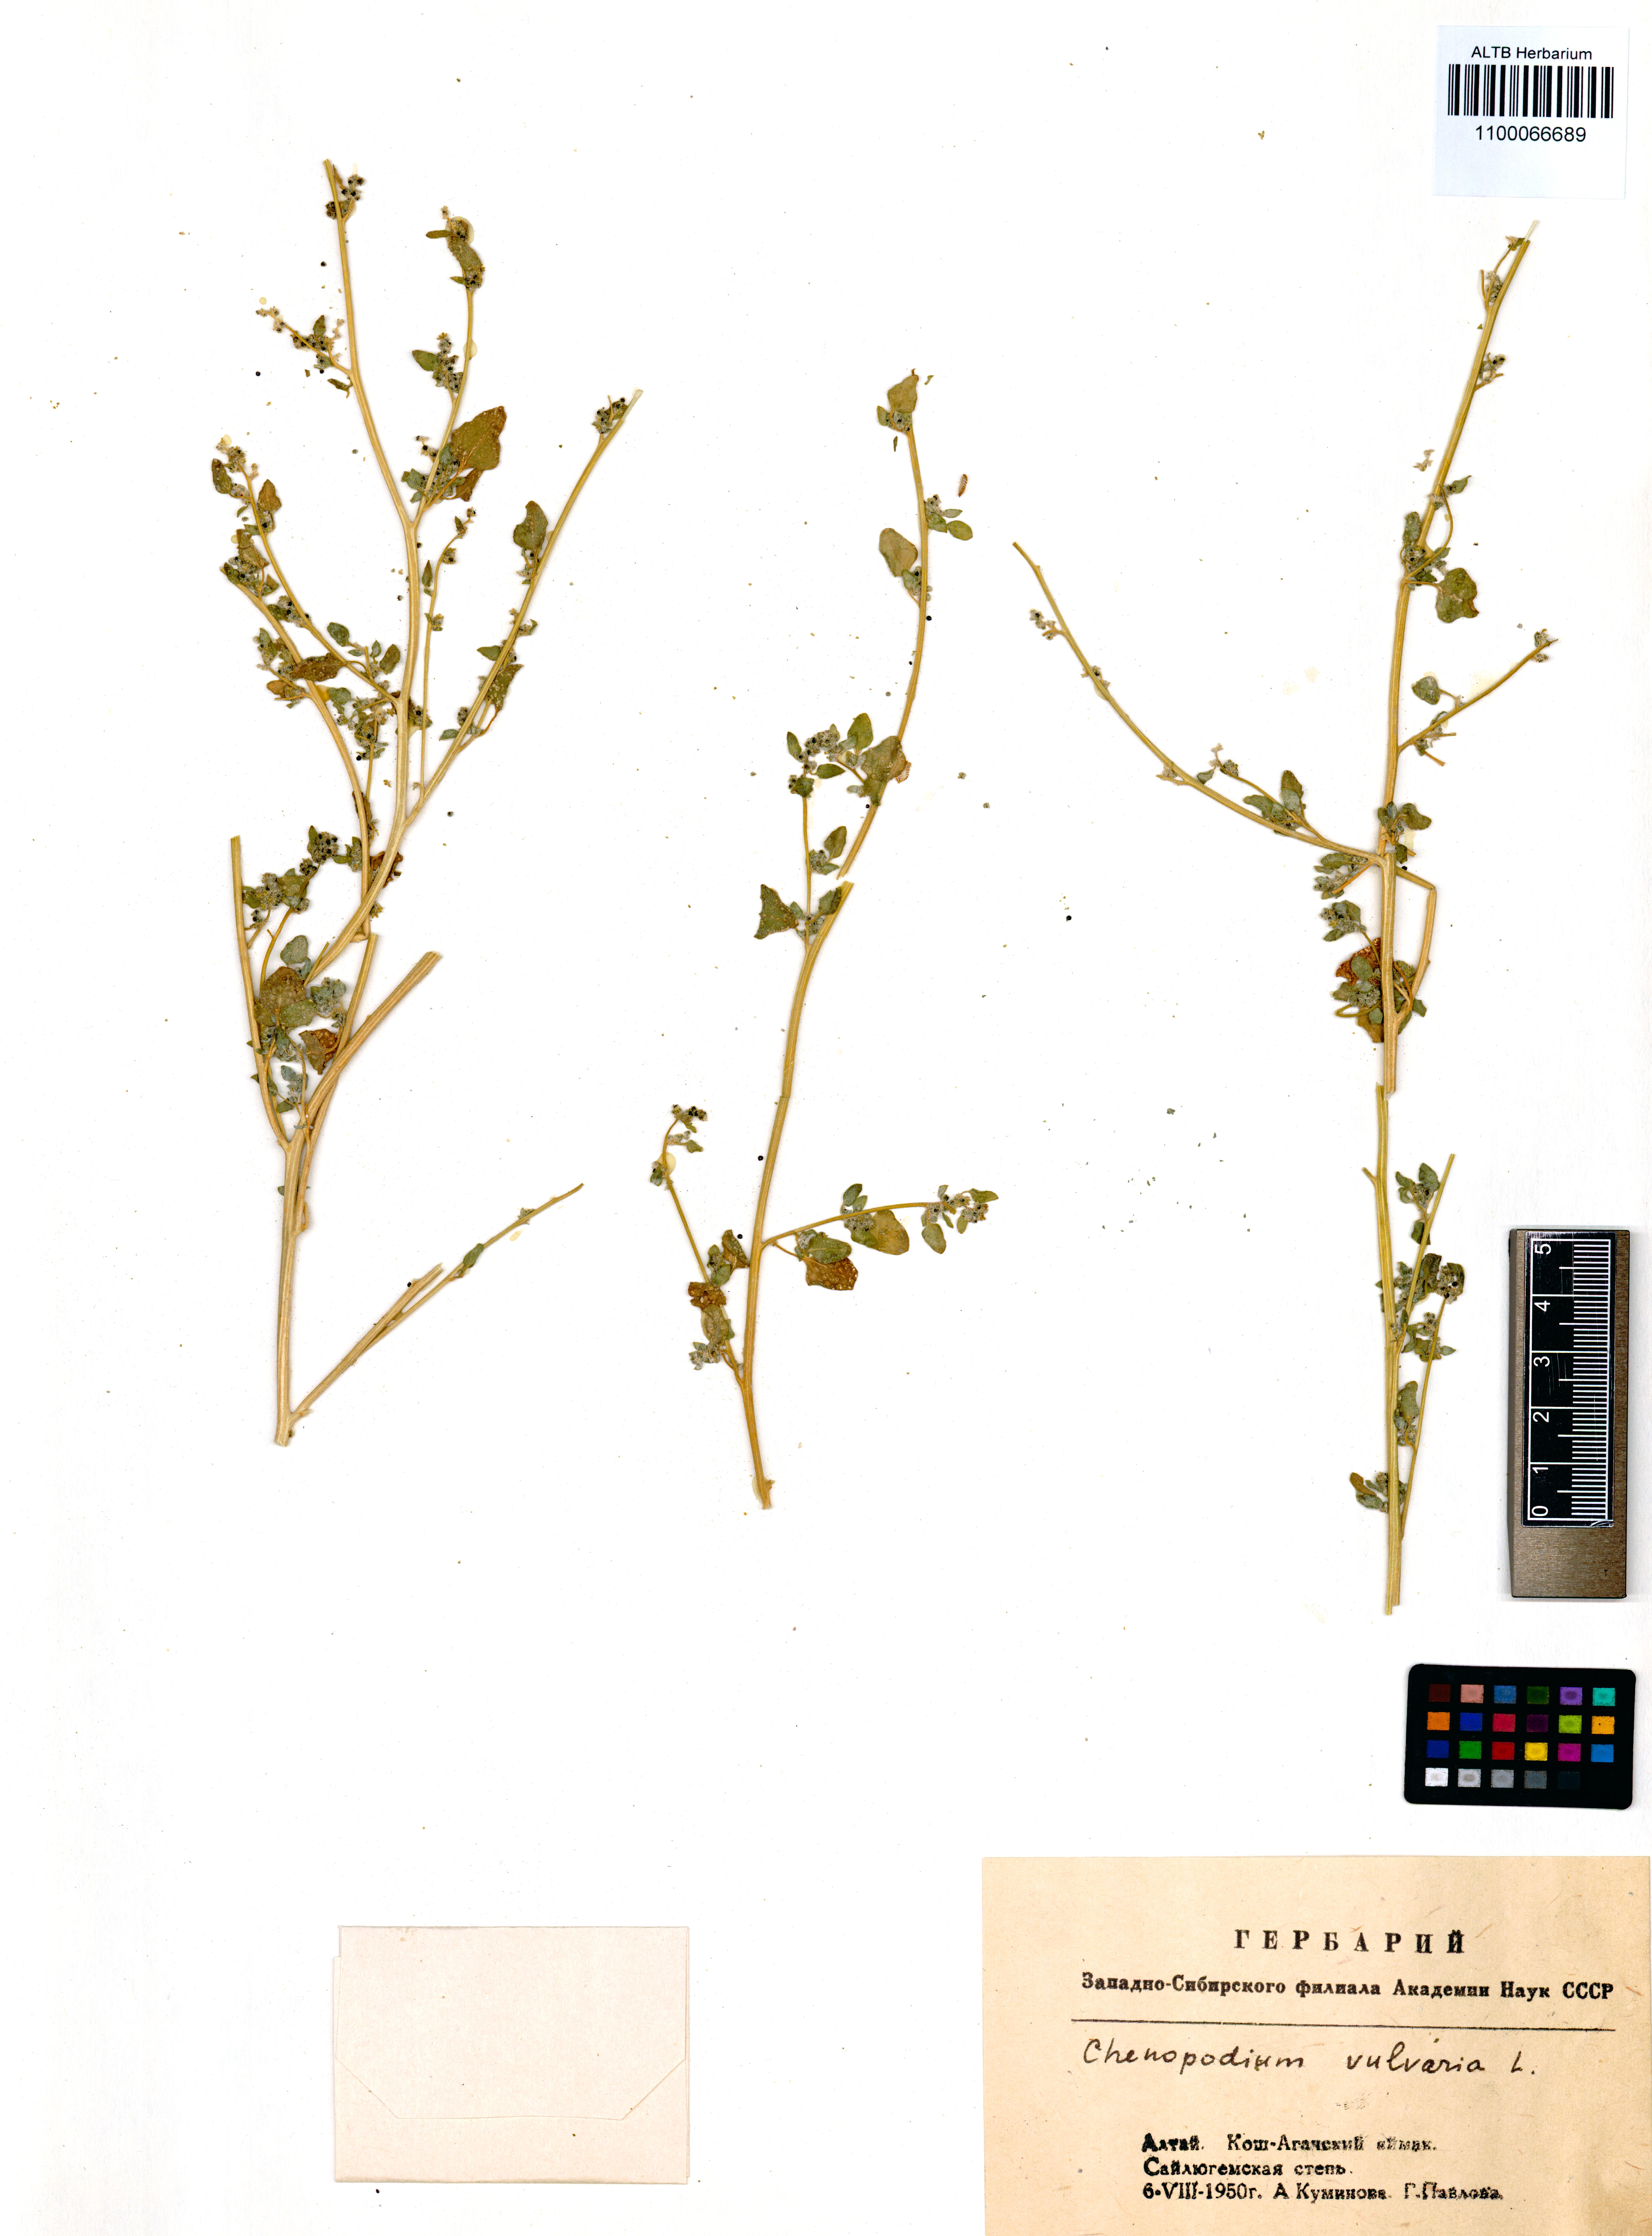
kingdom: Plantae
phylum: Tracheophyta
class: Magnoliopsida
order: Caryophyllales
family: Amaranthaceae
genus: Chenopodium
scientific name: Chenopodium vulvaria
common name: Stinking goosefoot
